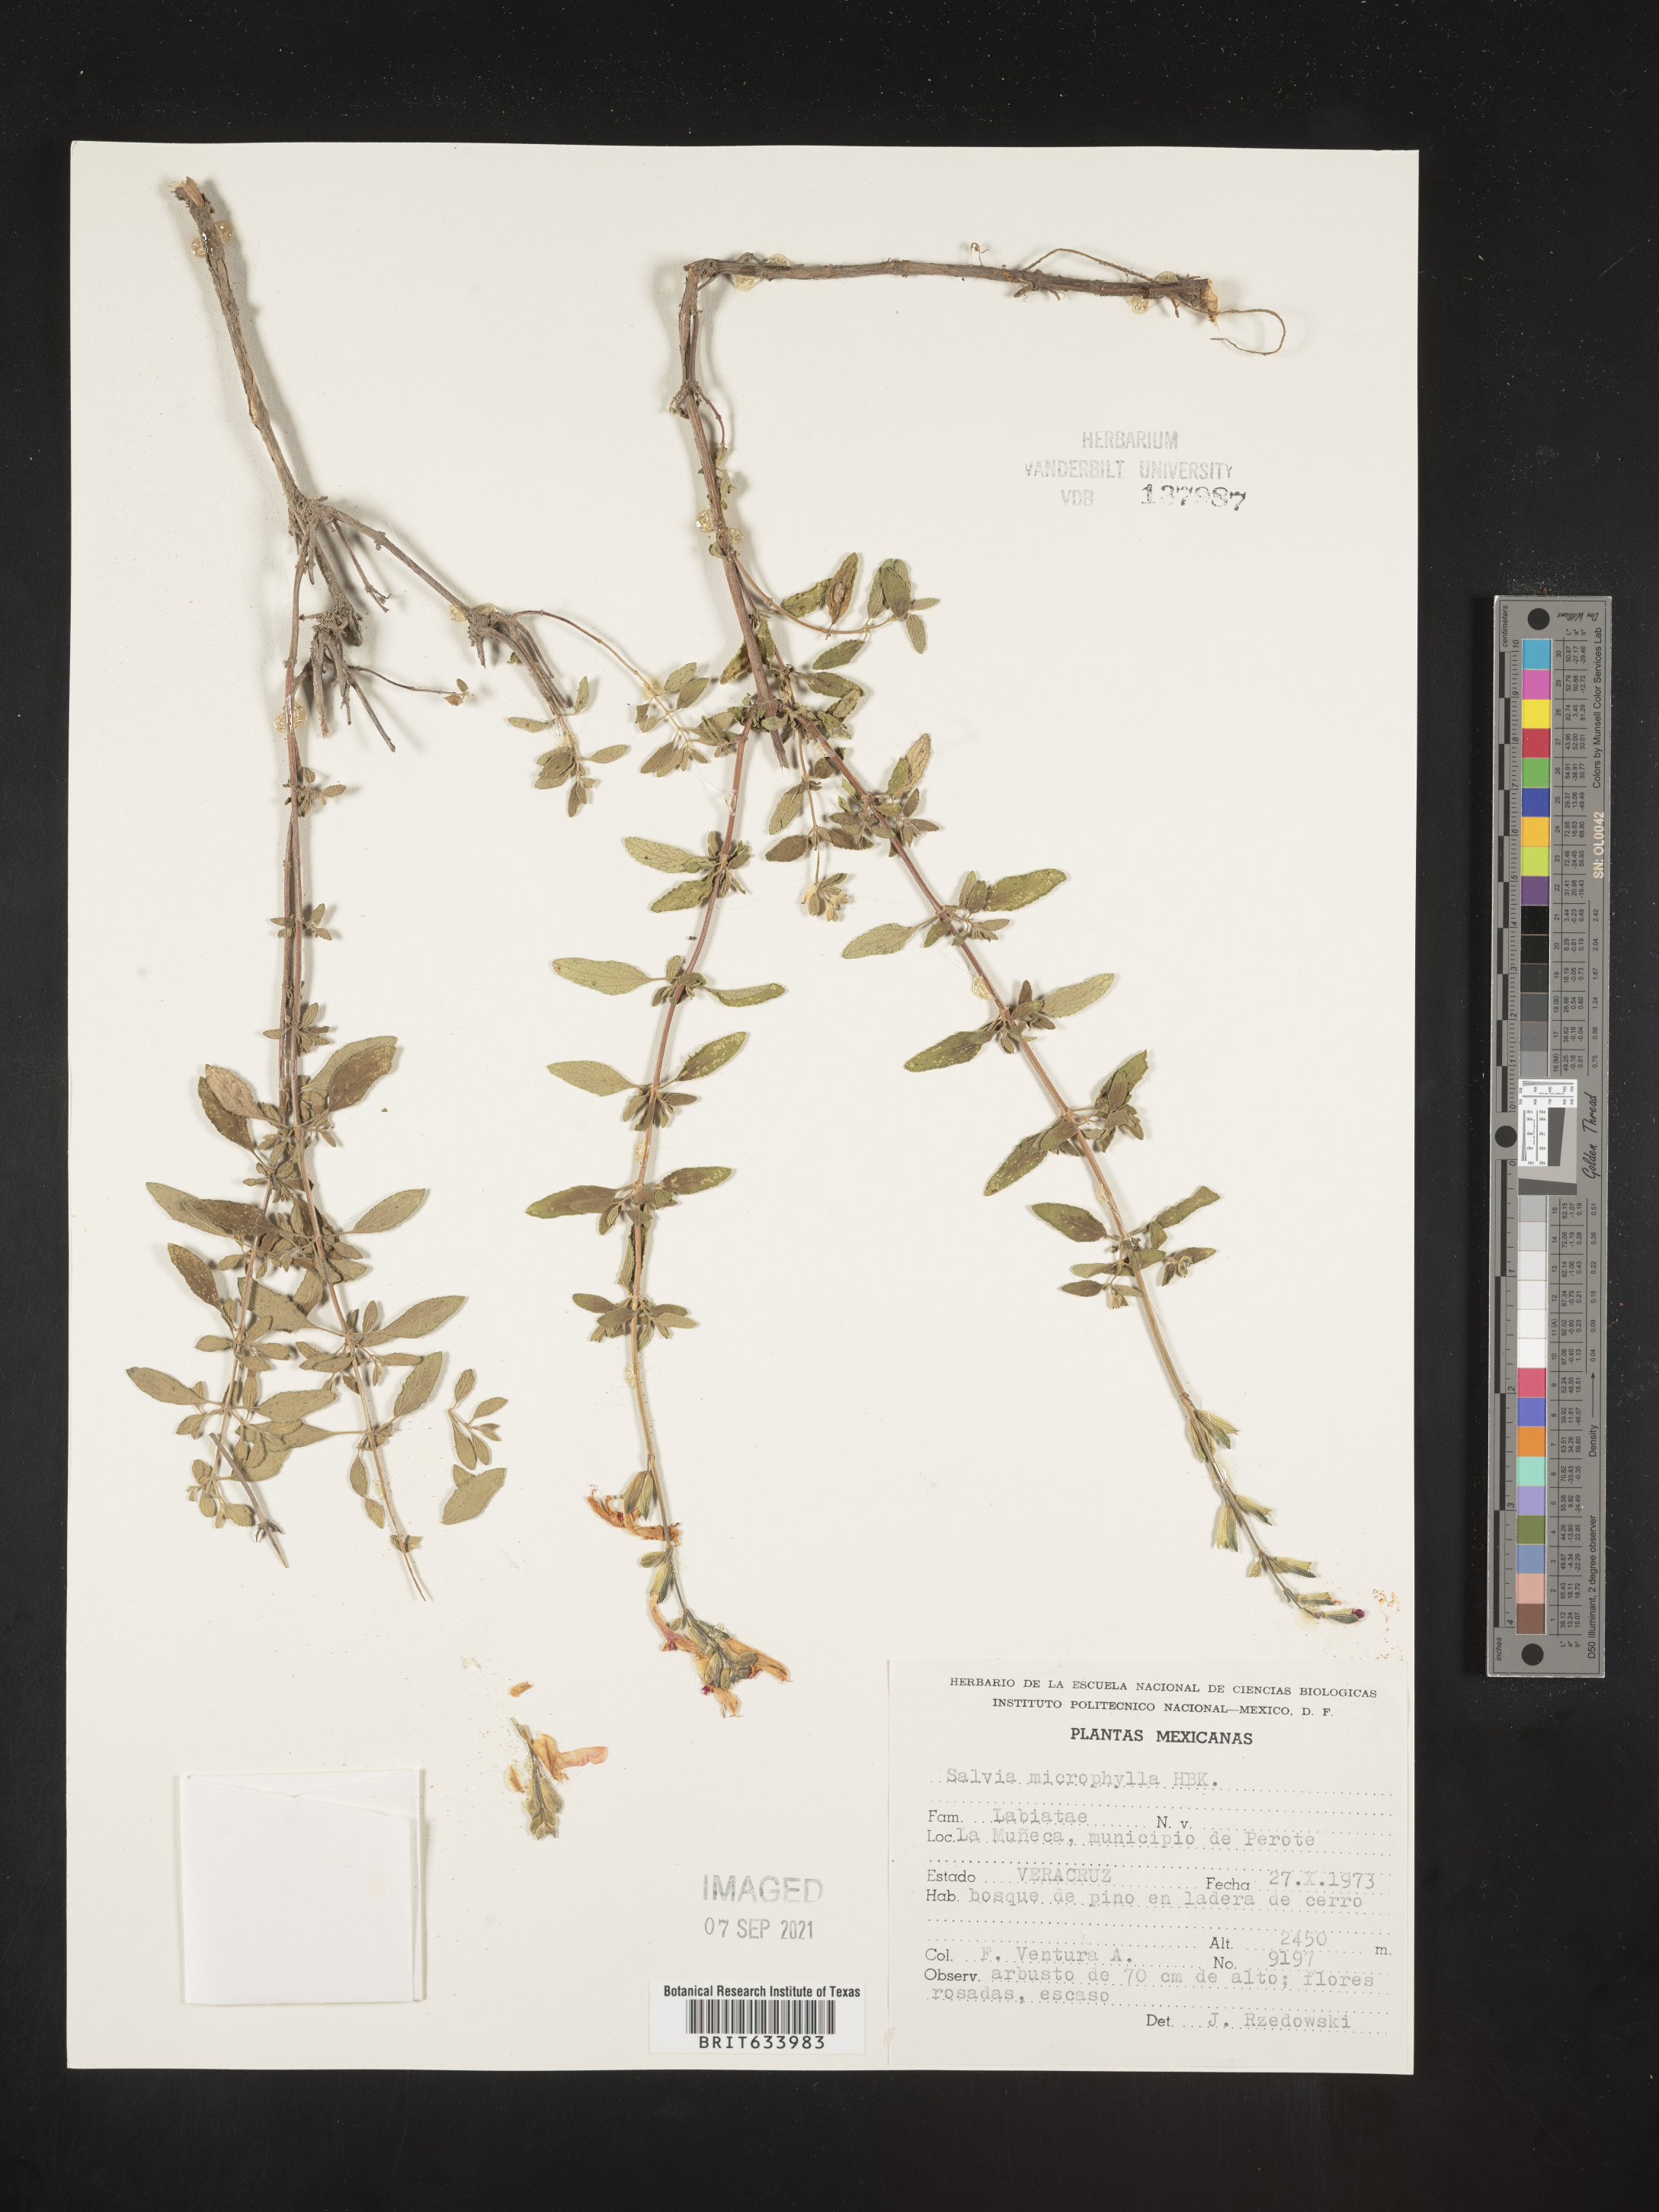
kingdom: Plantae
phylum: Tracheophyta
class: Magnoliopsida
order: Lamiales
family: Lamiaceae
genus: Salvia
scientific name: Salvia
